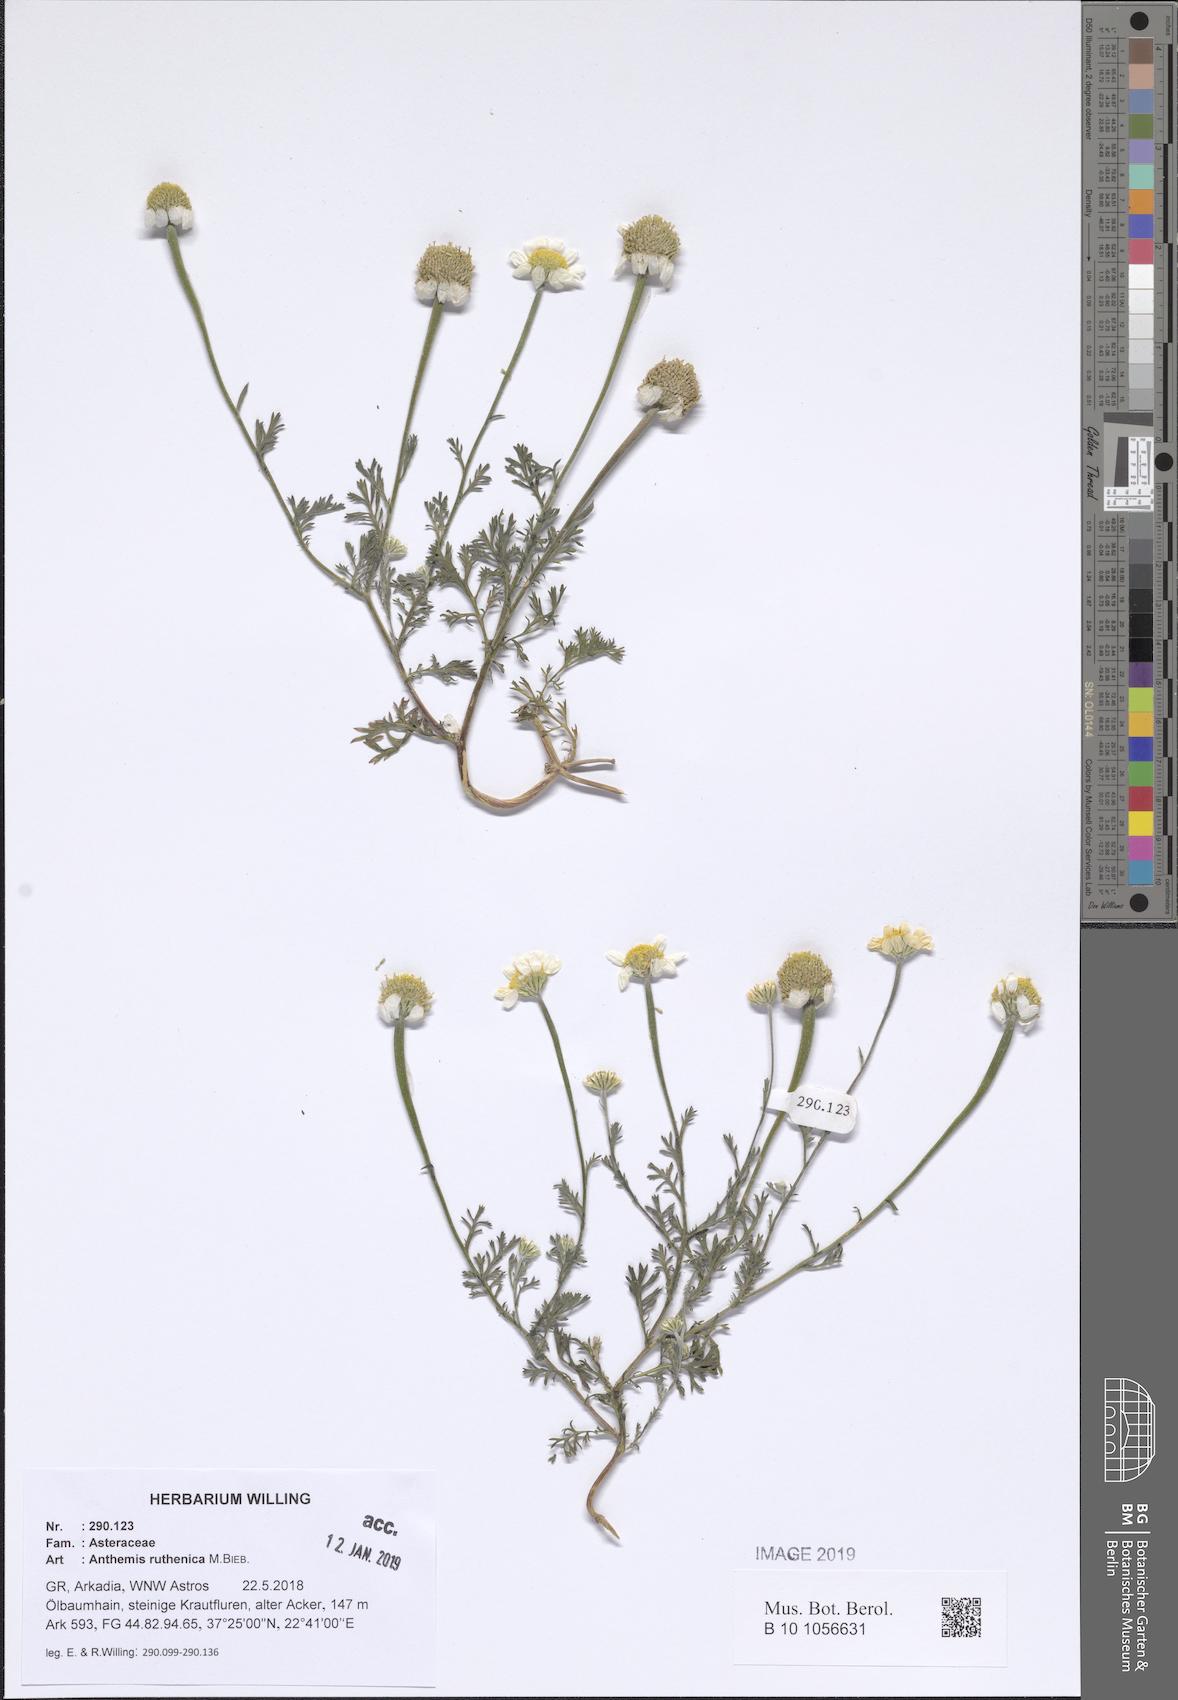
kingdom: Plantae
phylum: Tracheophyta
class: Magnoliopsida
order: Asterales
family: Asteraceae
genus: Anthemis
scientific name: Anthemis ruthenica
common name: Eastern chamomile
